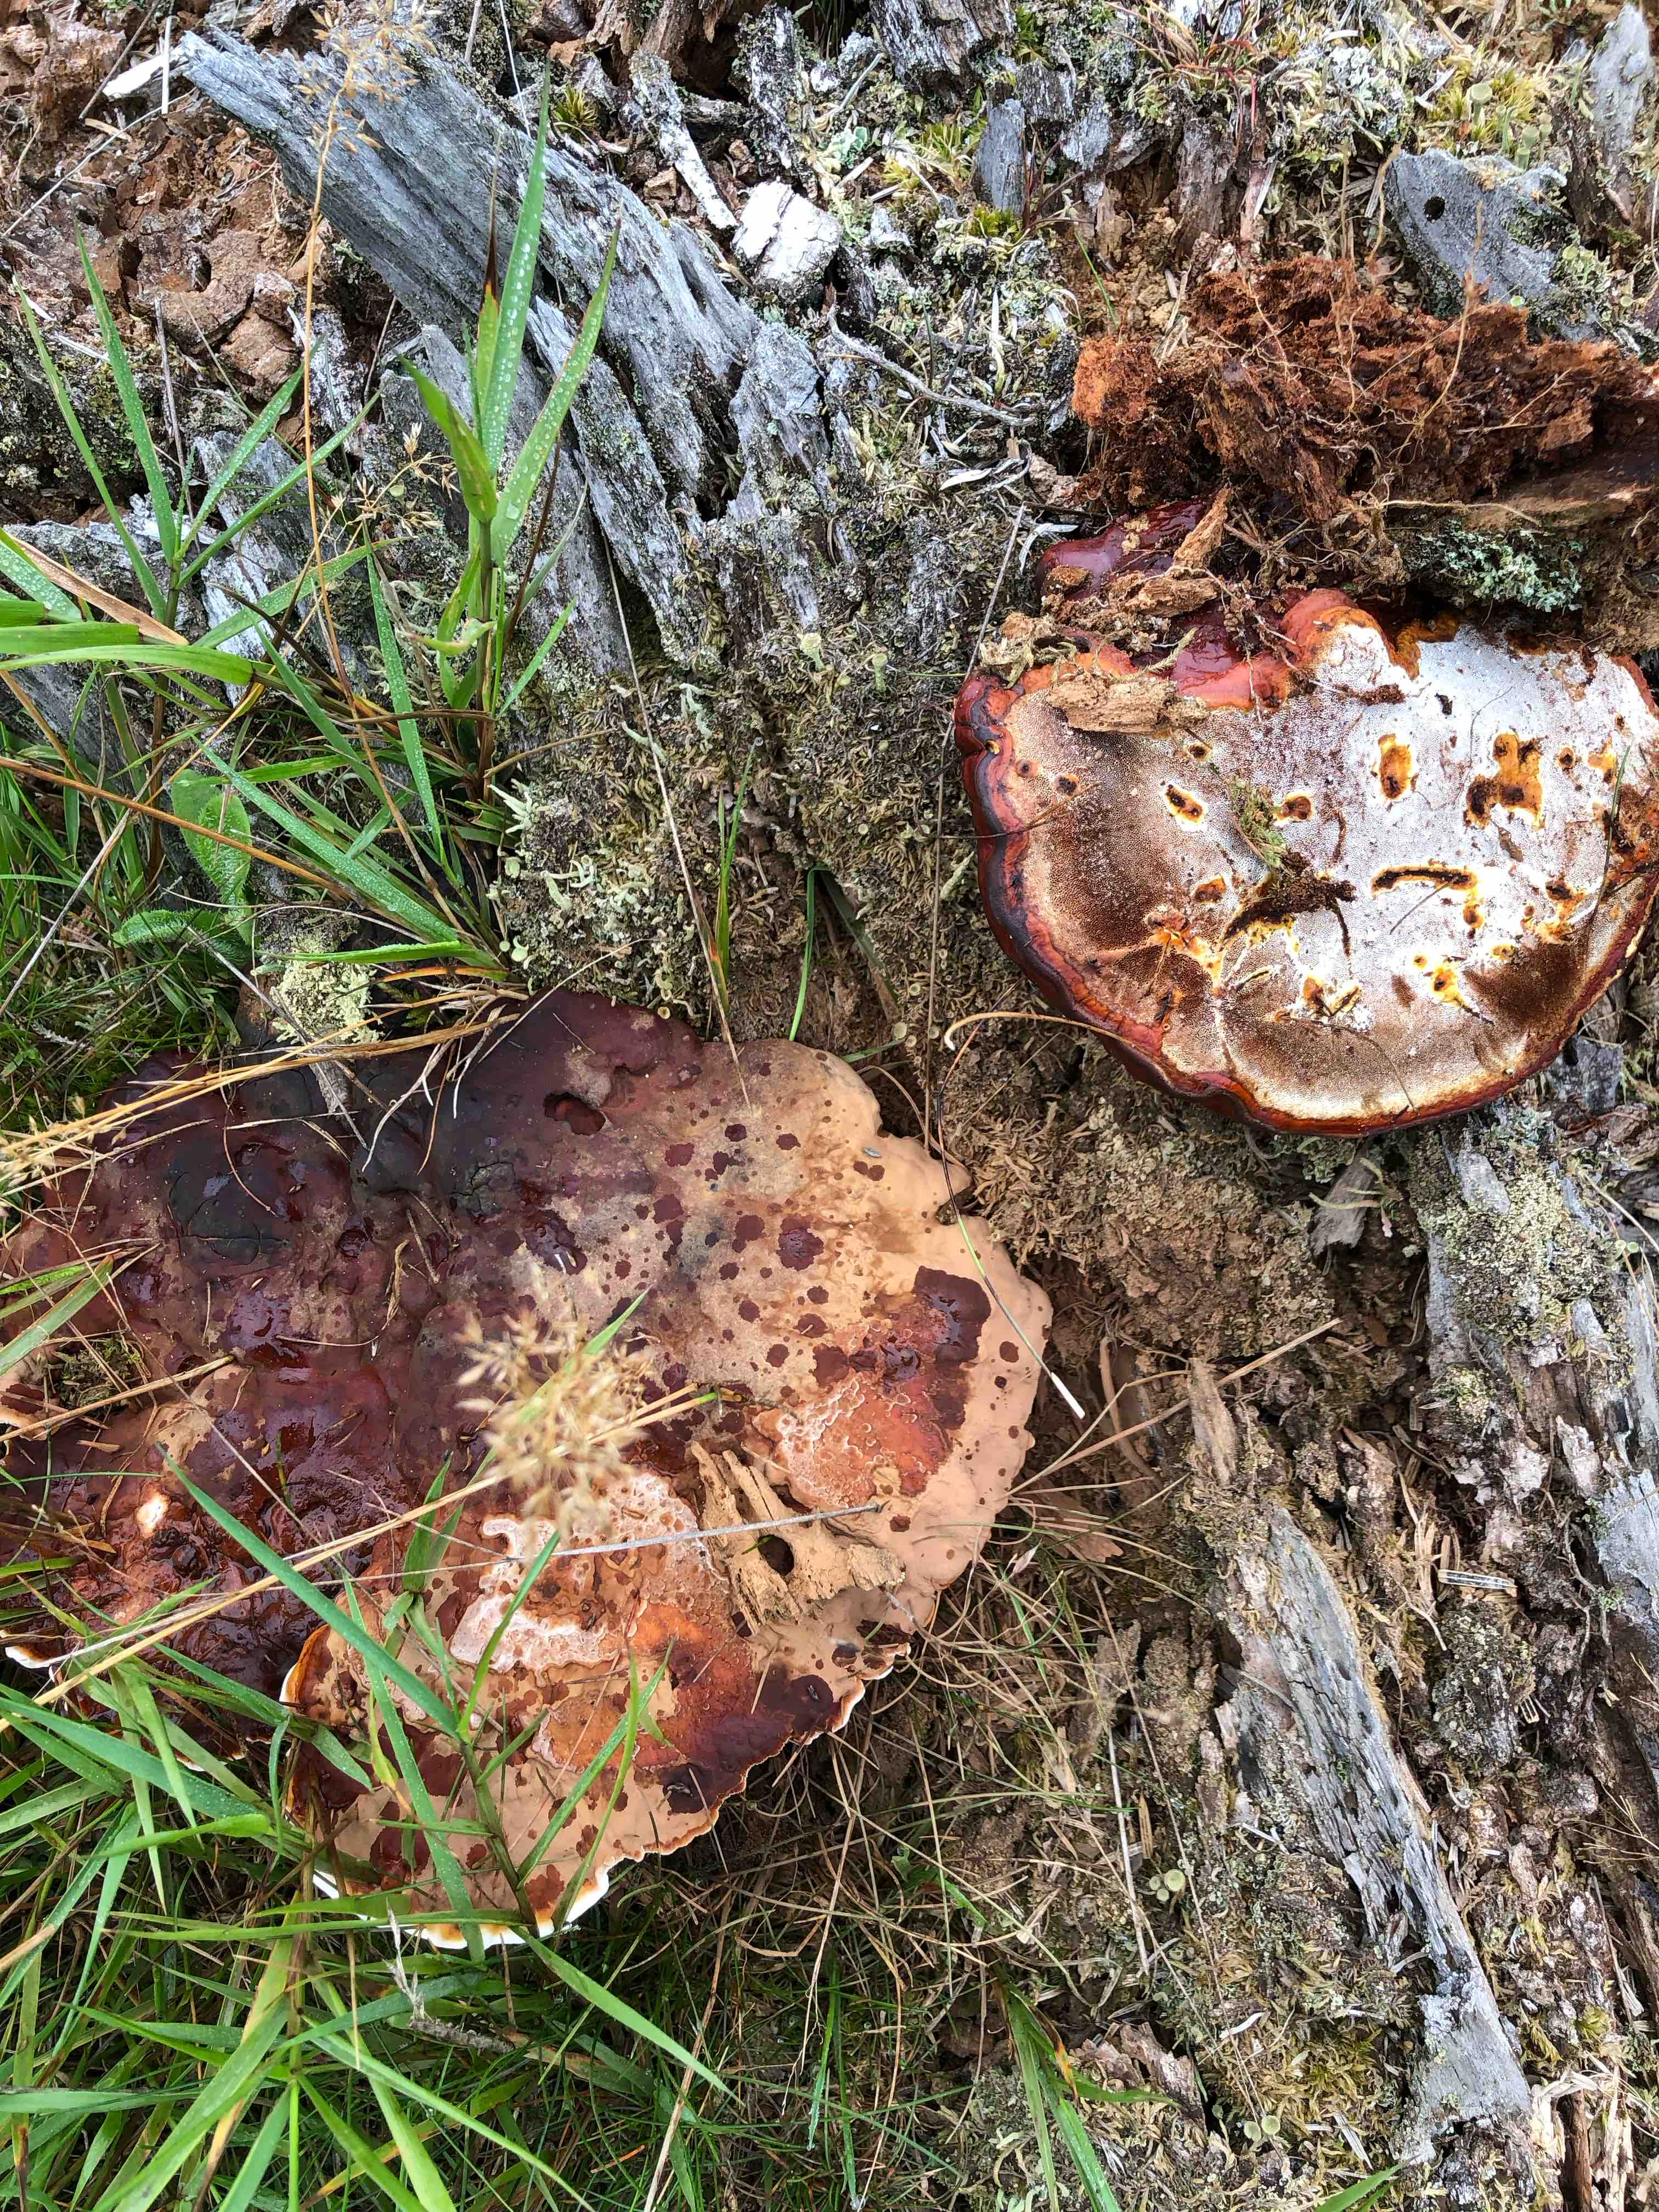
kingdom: Fungi
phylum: Basidiomycota
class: Agaricomycetes
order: Polyporales
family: Polyporaceae
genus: Ganoderma
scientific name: Ganoderma lucidum
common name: skinnende lakporesvamp
